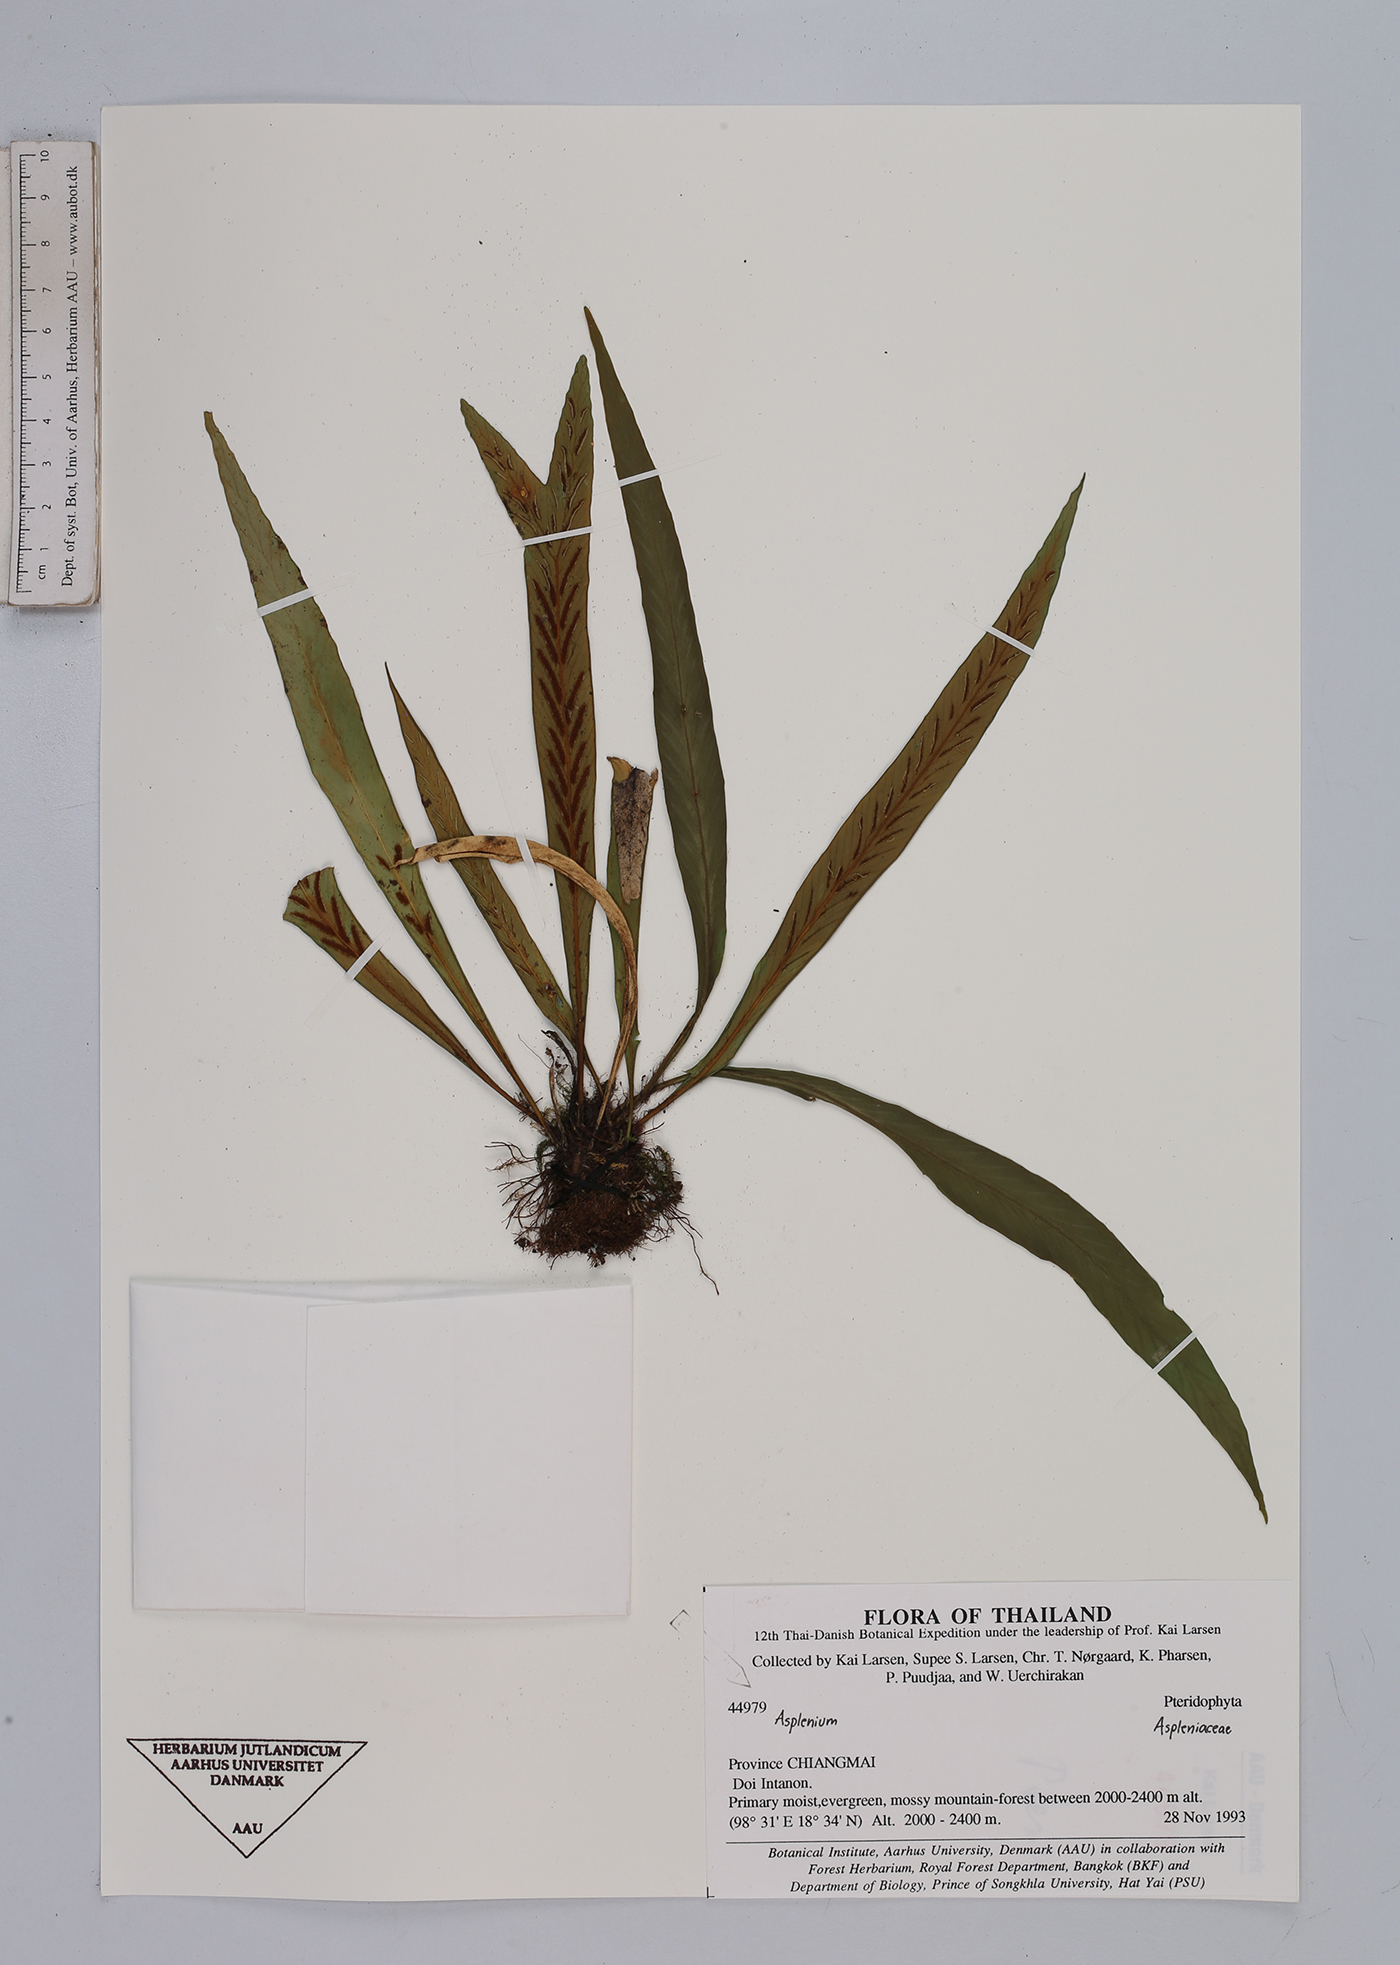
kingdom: Plantae
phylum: Tracheophyta
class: Polypodiopsida
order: Polypodiales
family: Aspleniaceae
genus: Asplenium
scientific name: Asplenium
